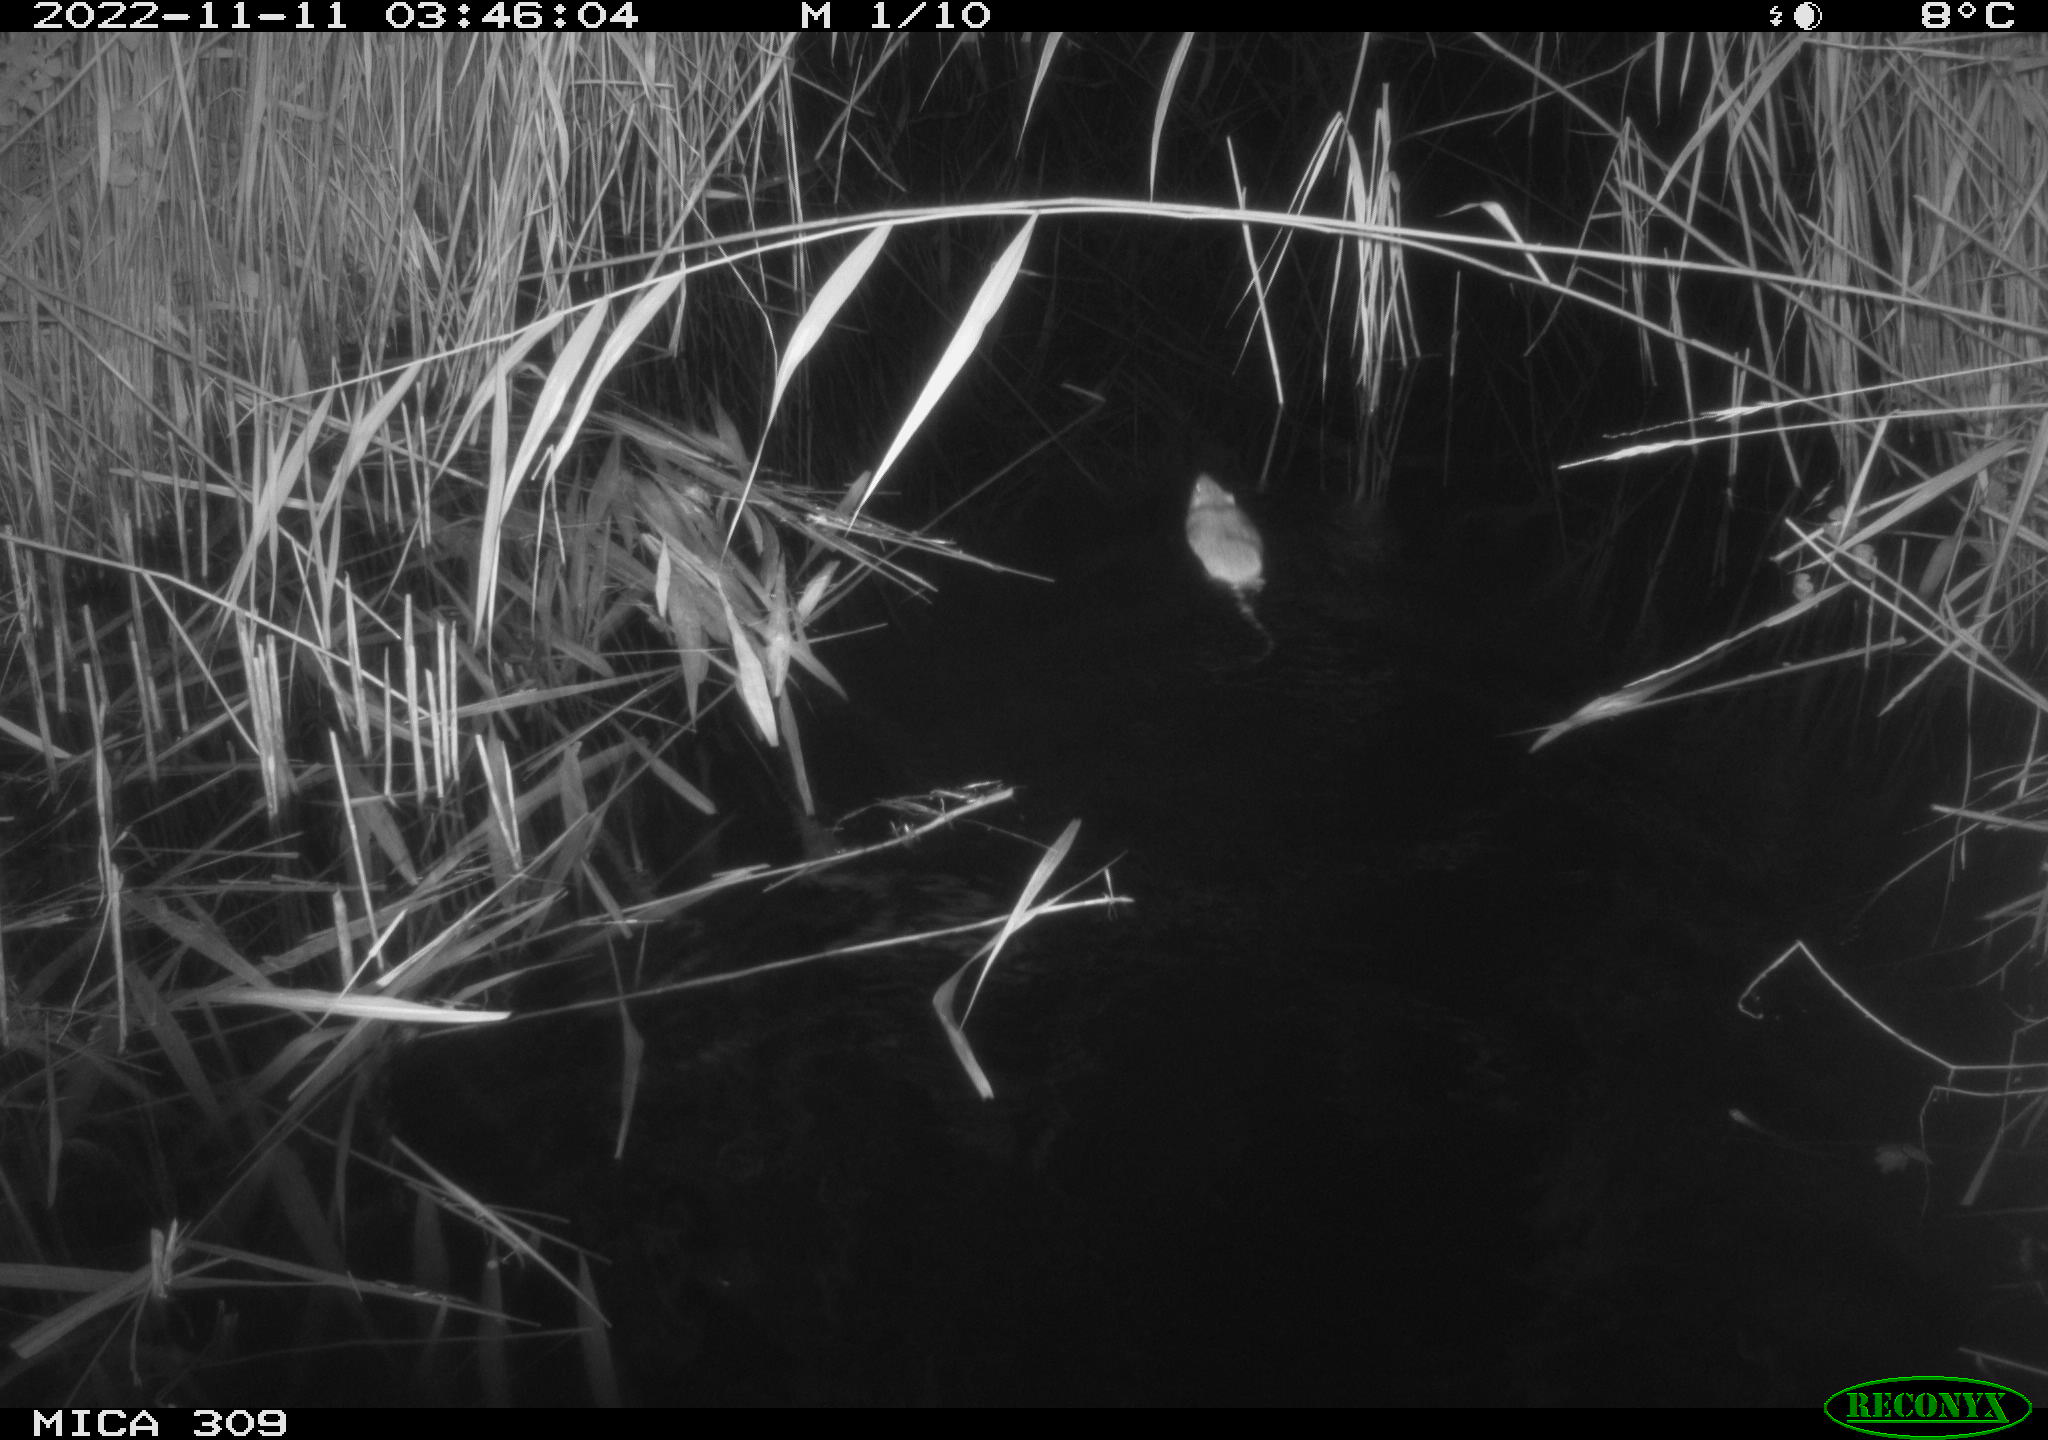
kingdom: Animalia
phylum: Chordata
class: Mammalia
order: Rodentia
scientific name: Rodentia
